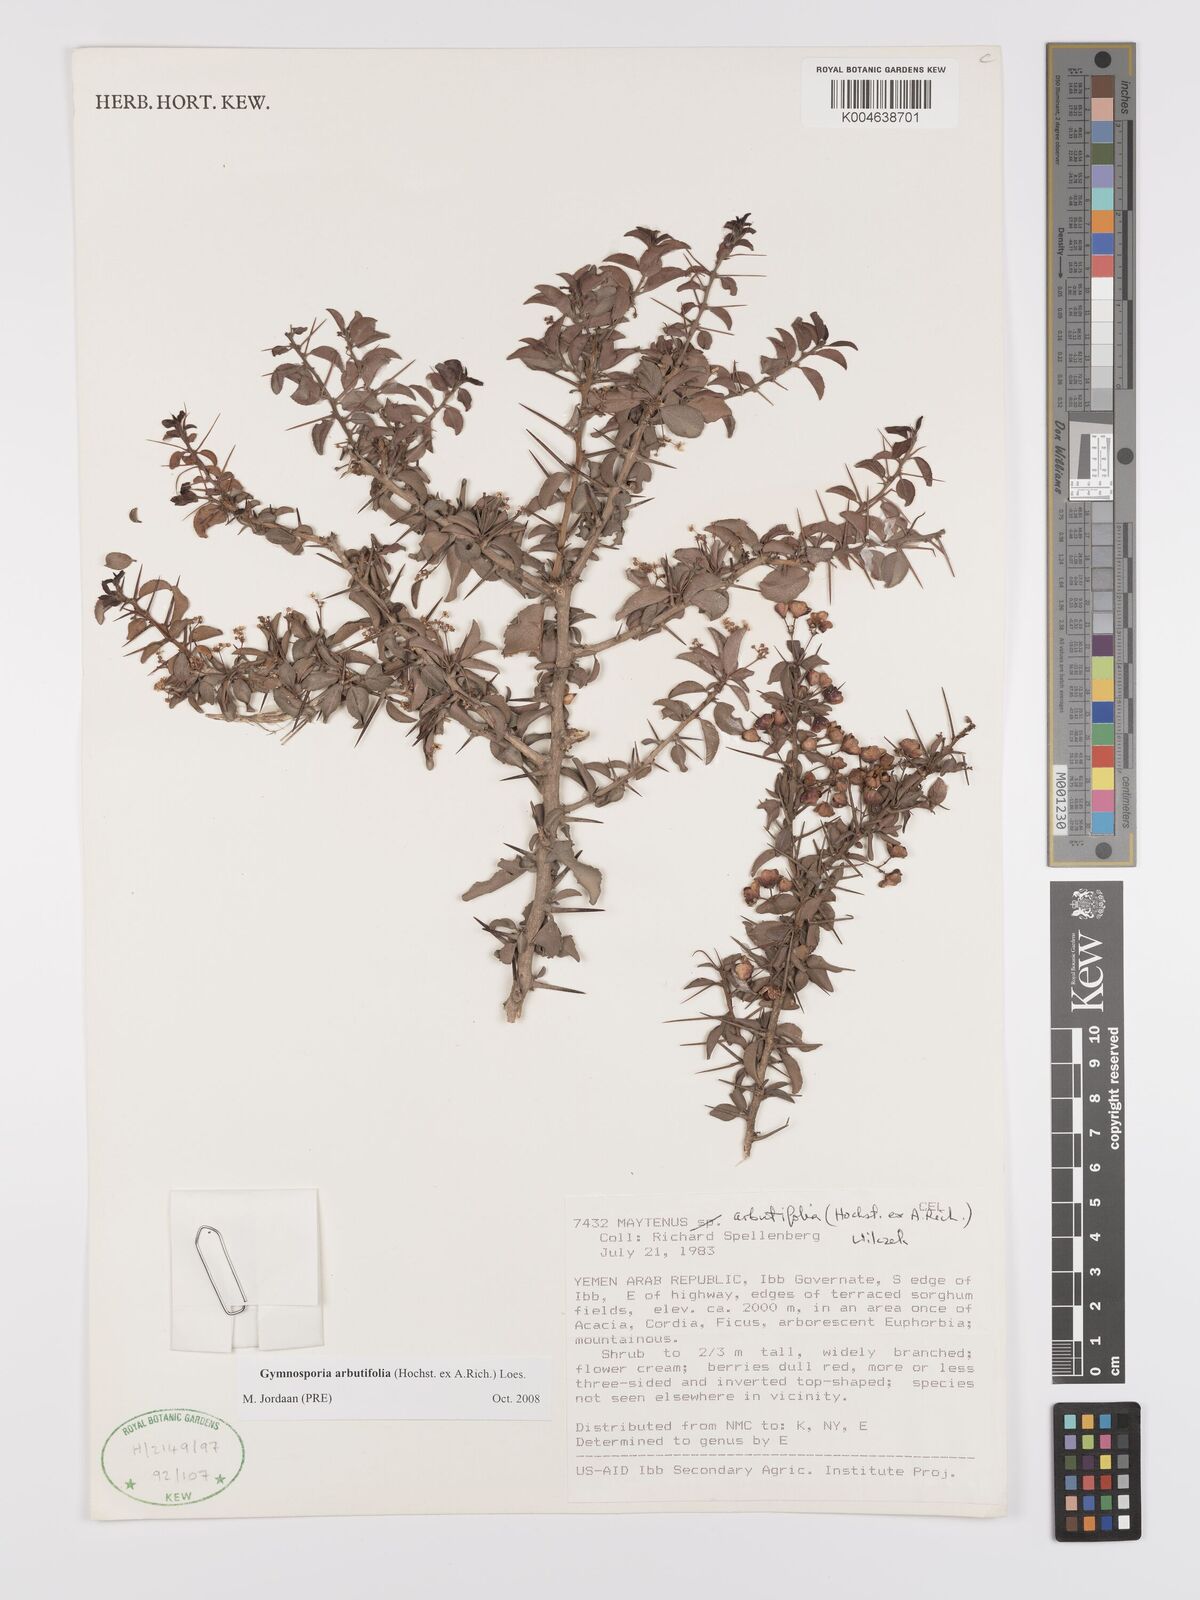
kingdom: Plantae
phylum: Tracheophyta
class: Magnoliopsida
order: Celastrales
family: Celastraceae
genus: Gymnosporia
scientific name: Gymnosporia arbutifolia
